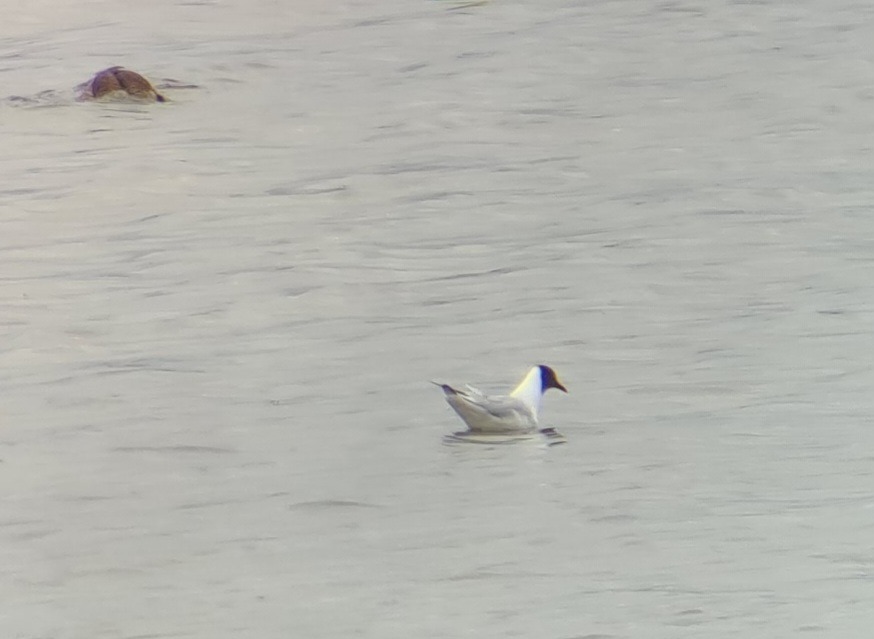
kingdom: Animalia
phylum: Chordata
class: Aves
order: Charadriiformes
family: Laridae
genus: Chroicocephalus
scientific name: Chroicocephalus ridibundus
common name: Hættemåge
